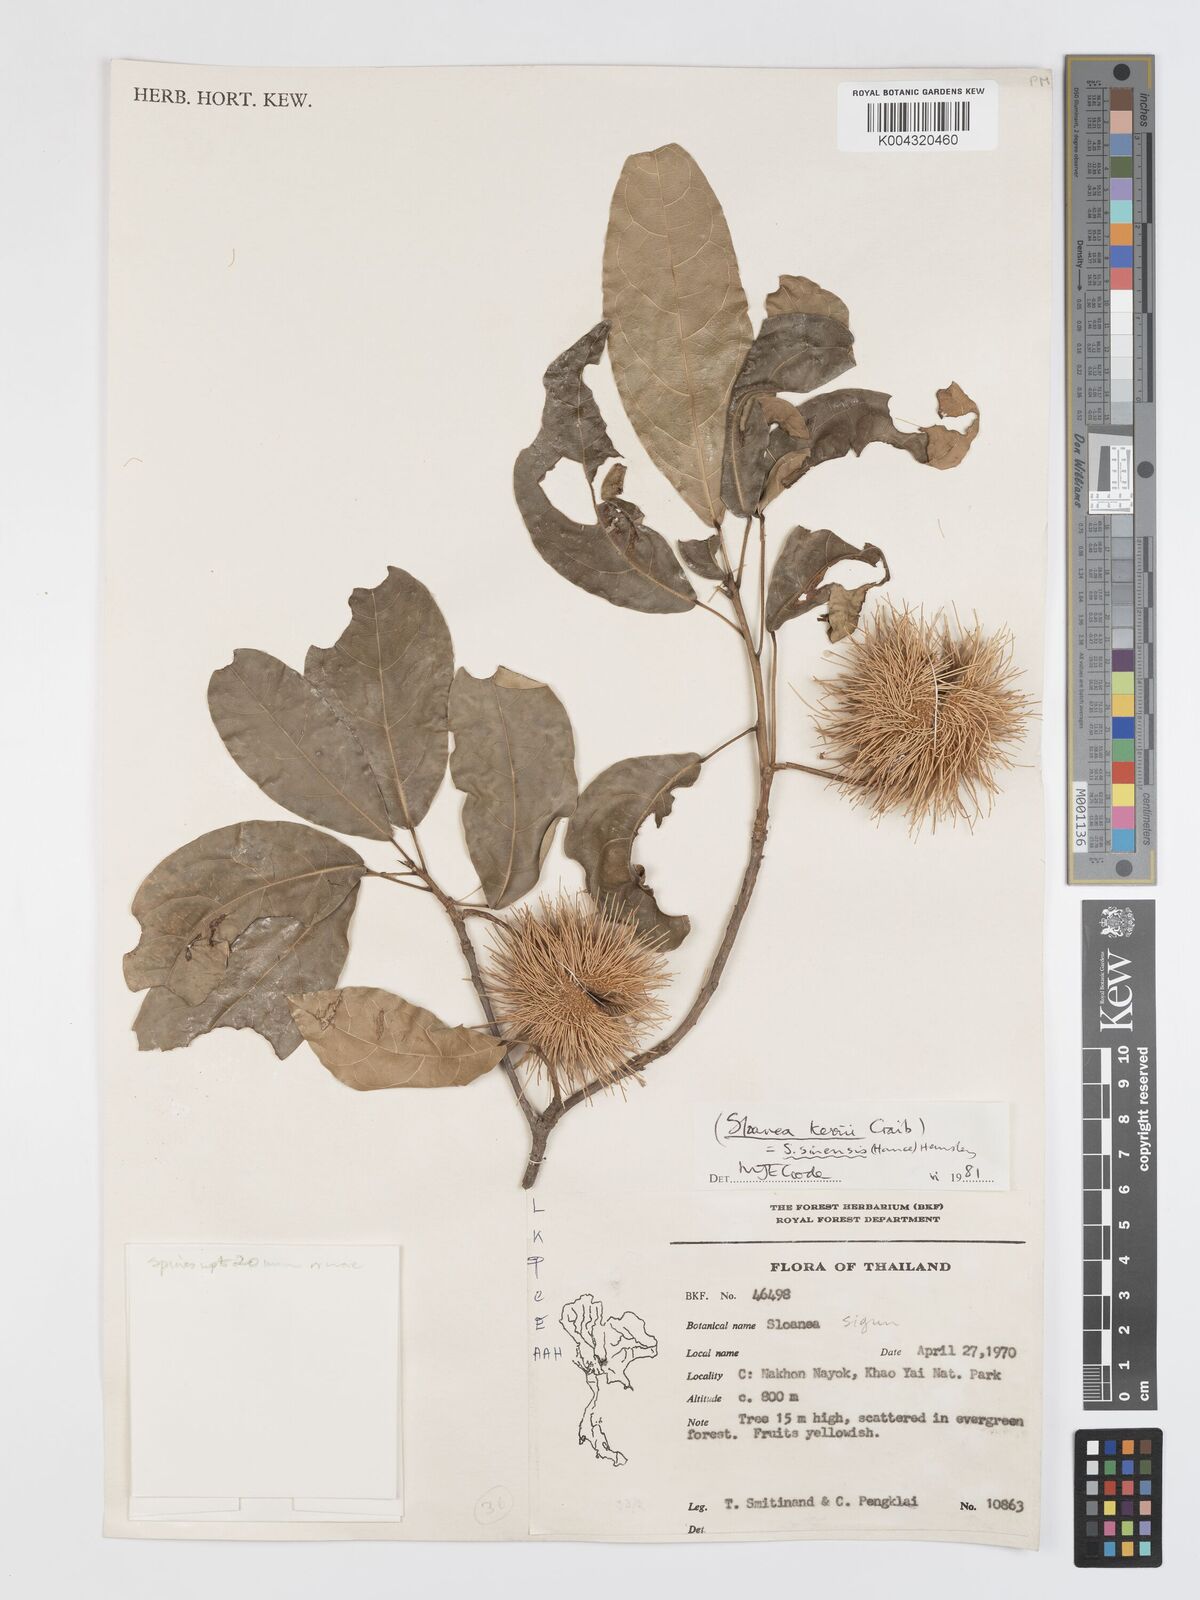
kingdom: Plantae
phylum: Tracheophyta
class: Magnoliopsida
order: Oxalidales
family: Elaeocarpaceae
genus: Sloanea
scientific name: Sloanea sinensis
